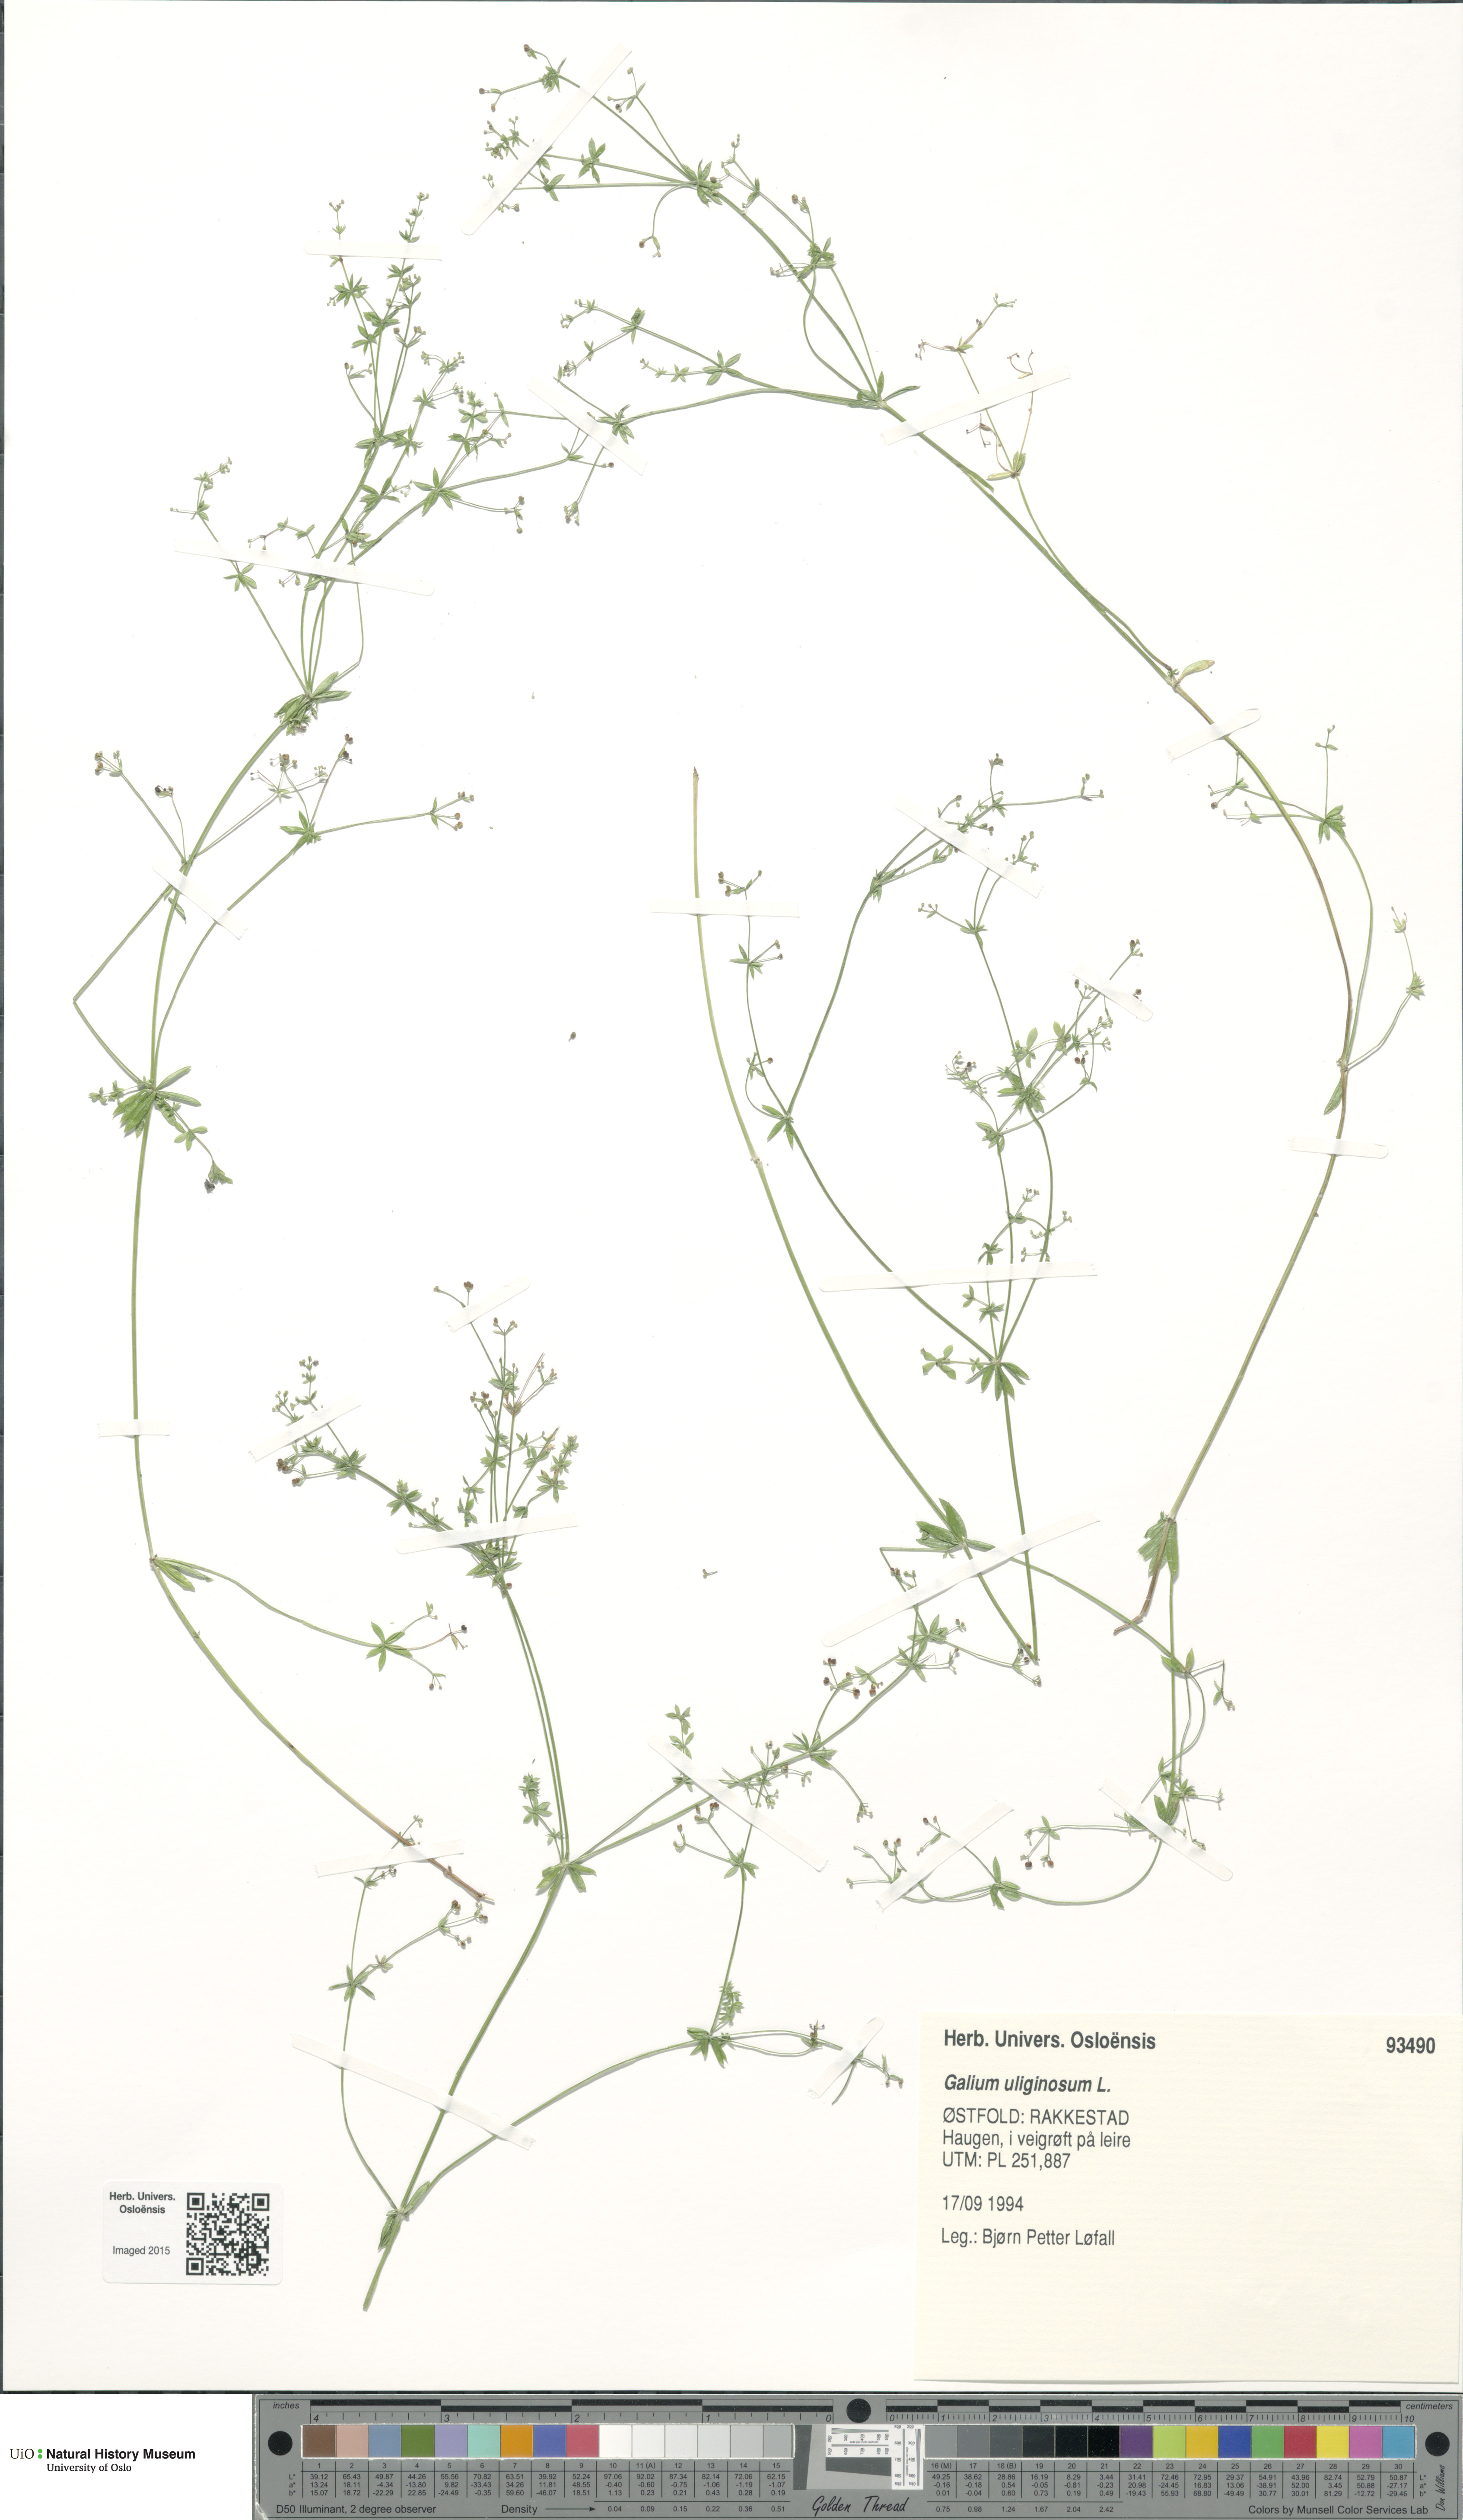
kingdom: Plantae
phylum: Tracheophyta
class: Magnoliopsida
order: Gentianales
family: Rubiaceae
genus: Galium
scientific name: Galium uliginosum
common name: Fen bedstraw
